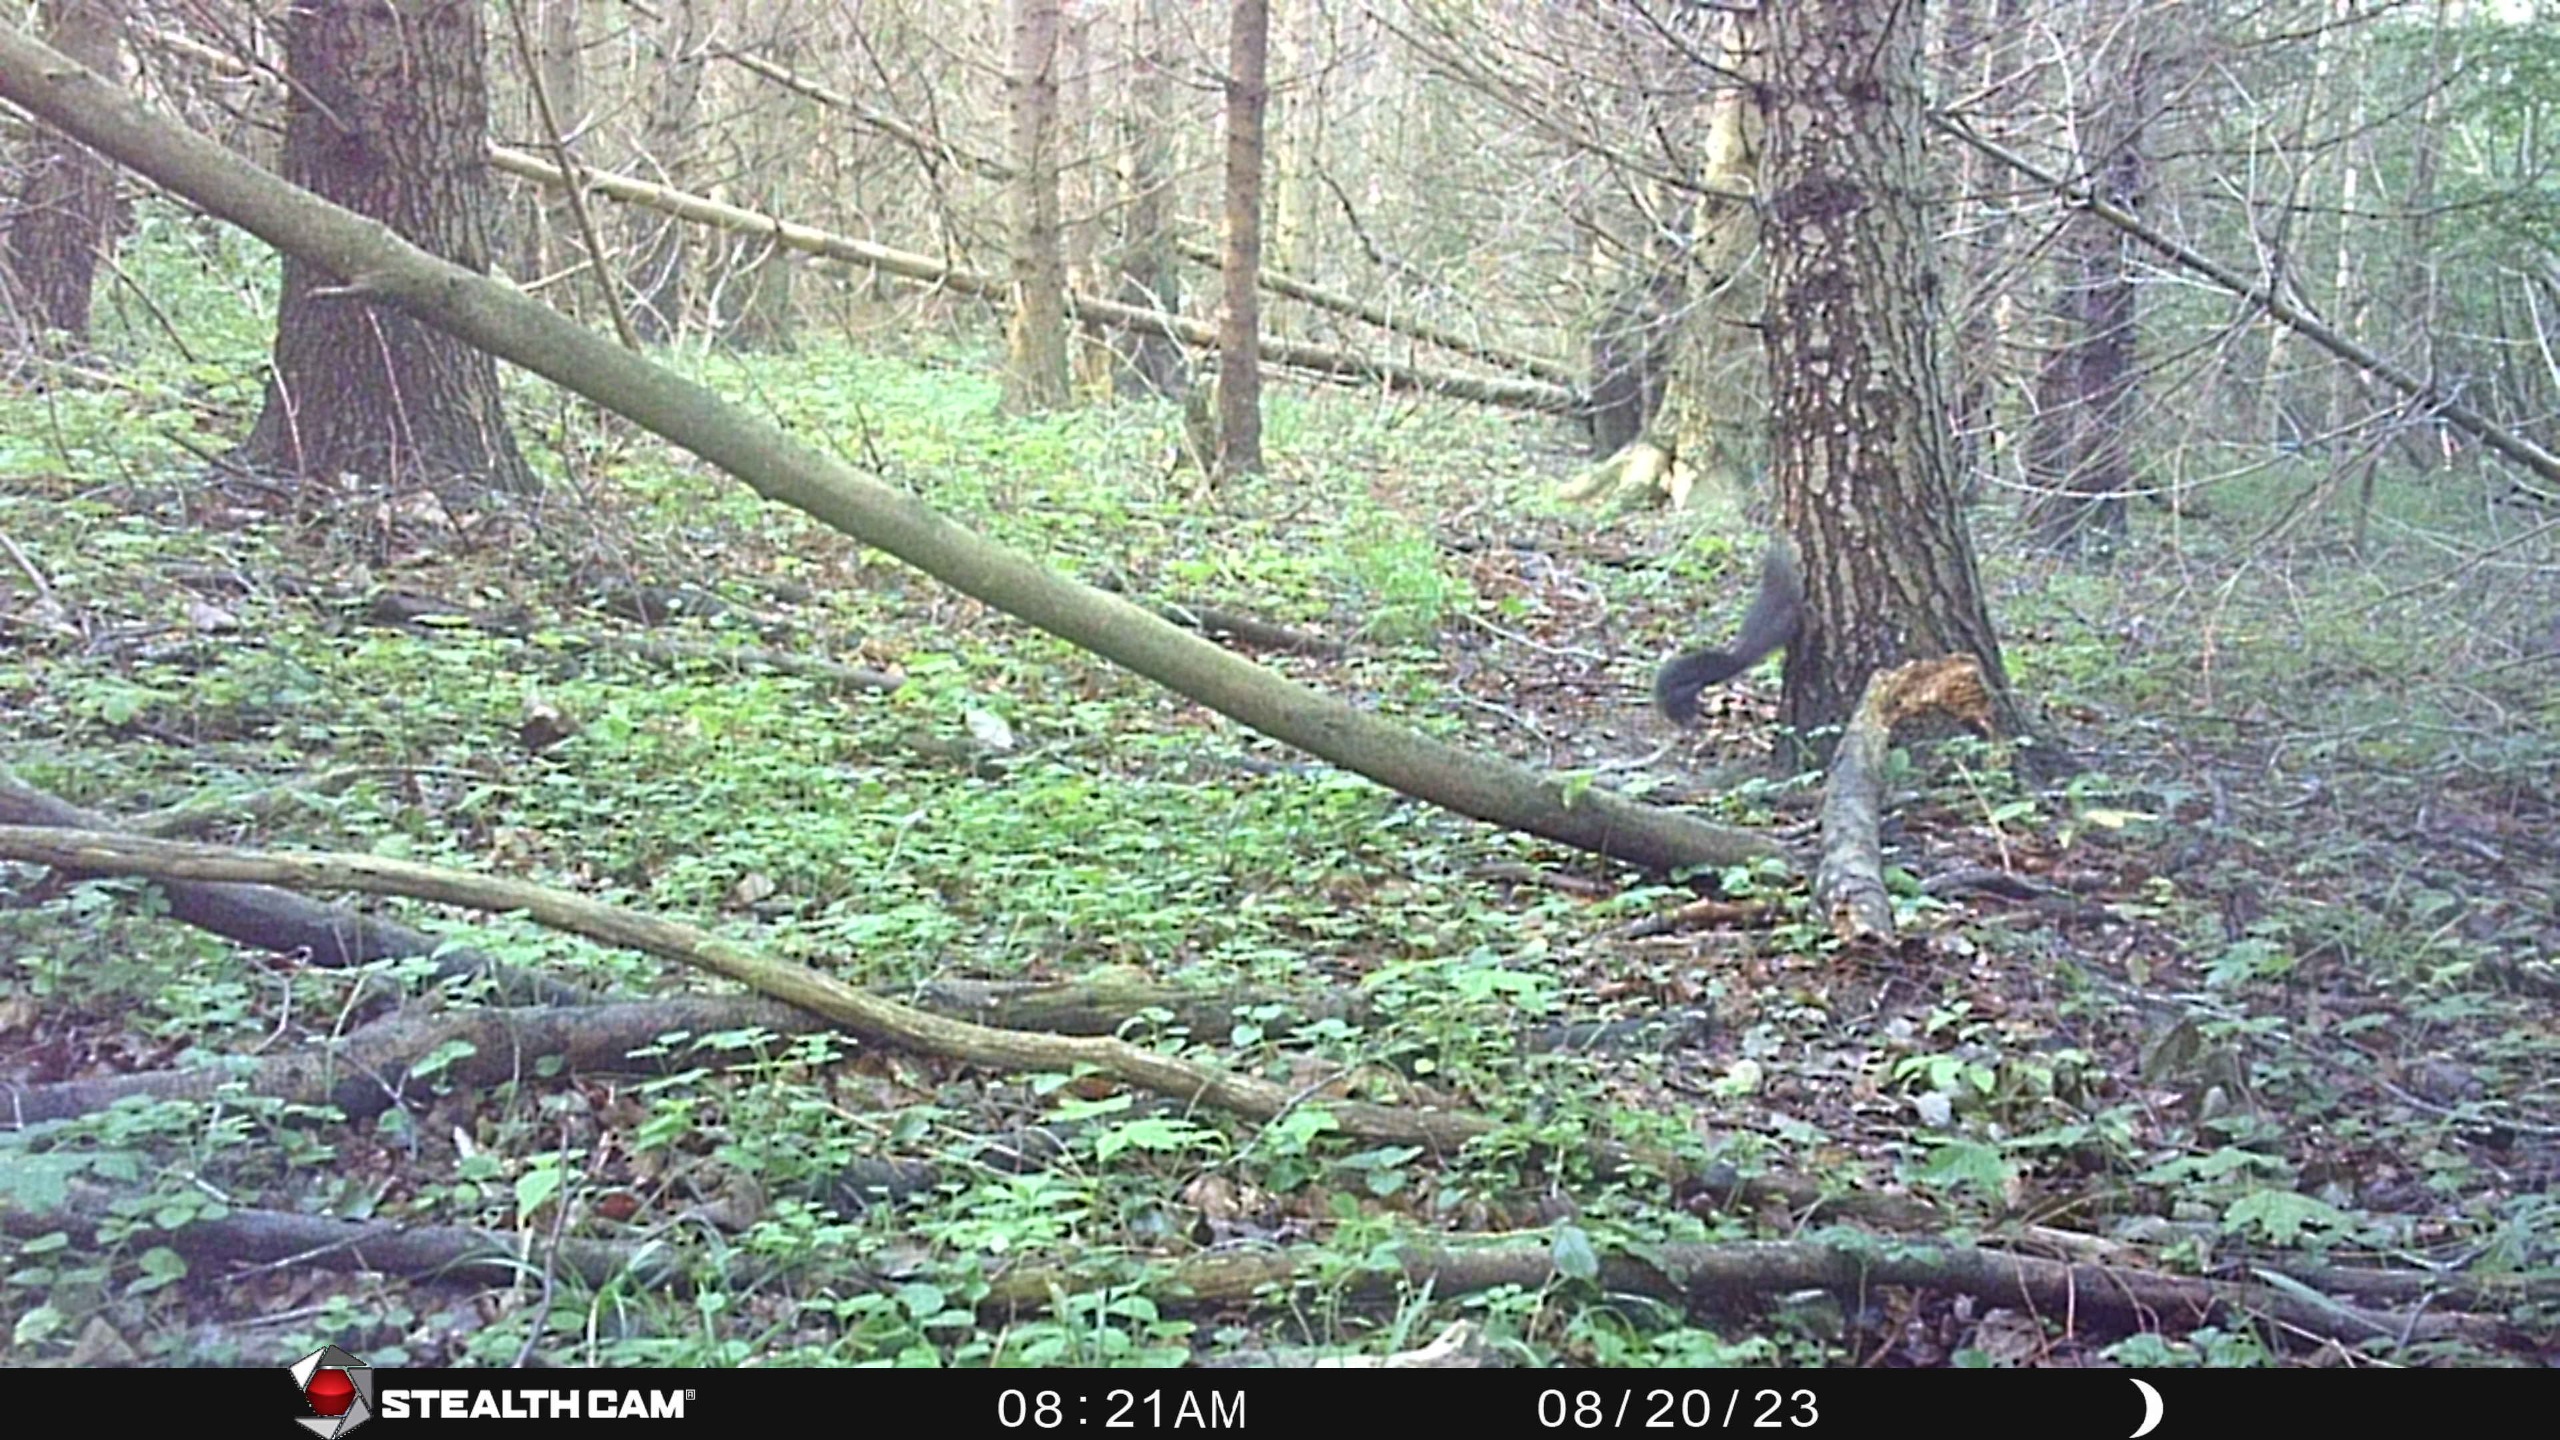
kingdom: Animalia
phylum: Chordata
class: Mammalia
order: Rodentia
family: Sciuridae
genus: Sciurus
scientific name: Sciurus vulgaris
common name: Egern
